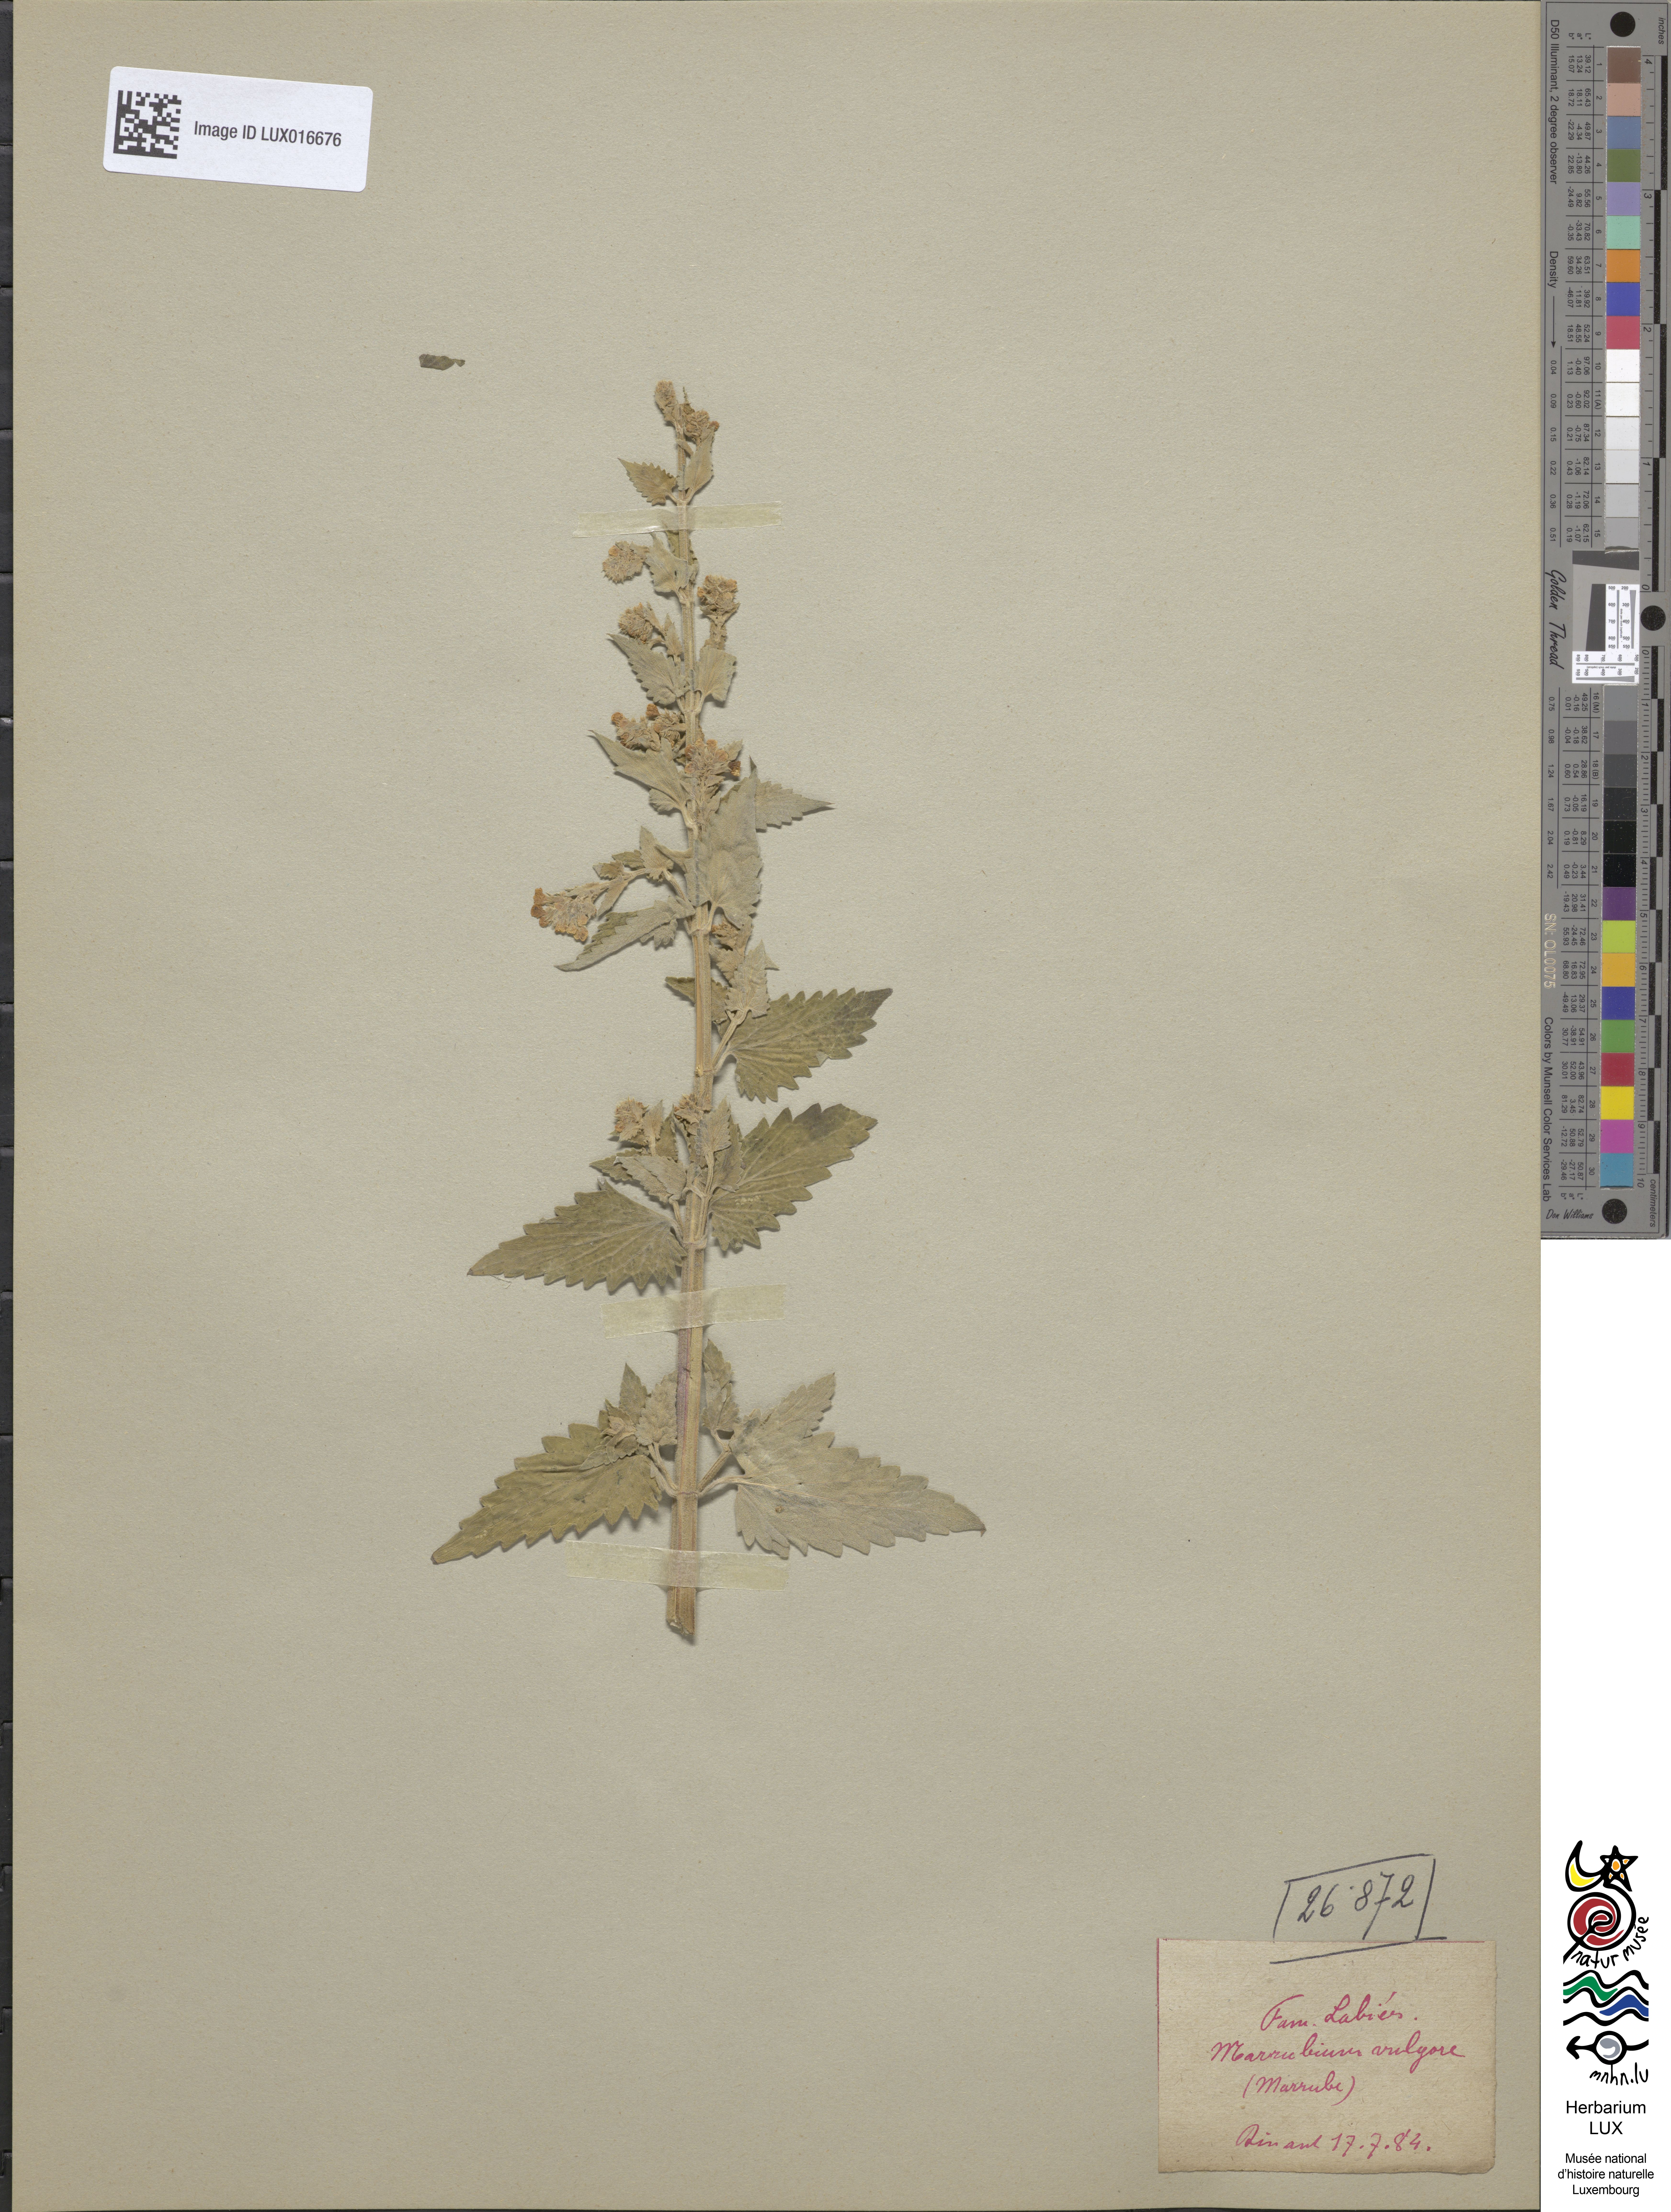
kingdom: Plantae
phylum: Tracheophyta
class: Magnoliopsida
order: Lamiales
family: Lamiaceae
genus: Marrubium
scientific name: Marrubium vulgare
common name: Horehound
